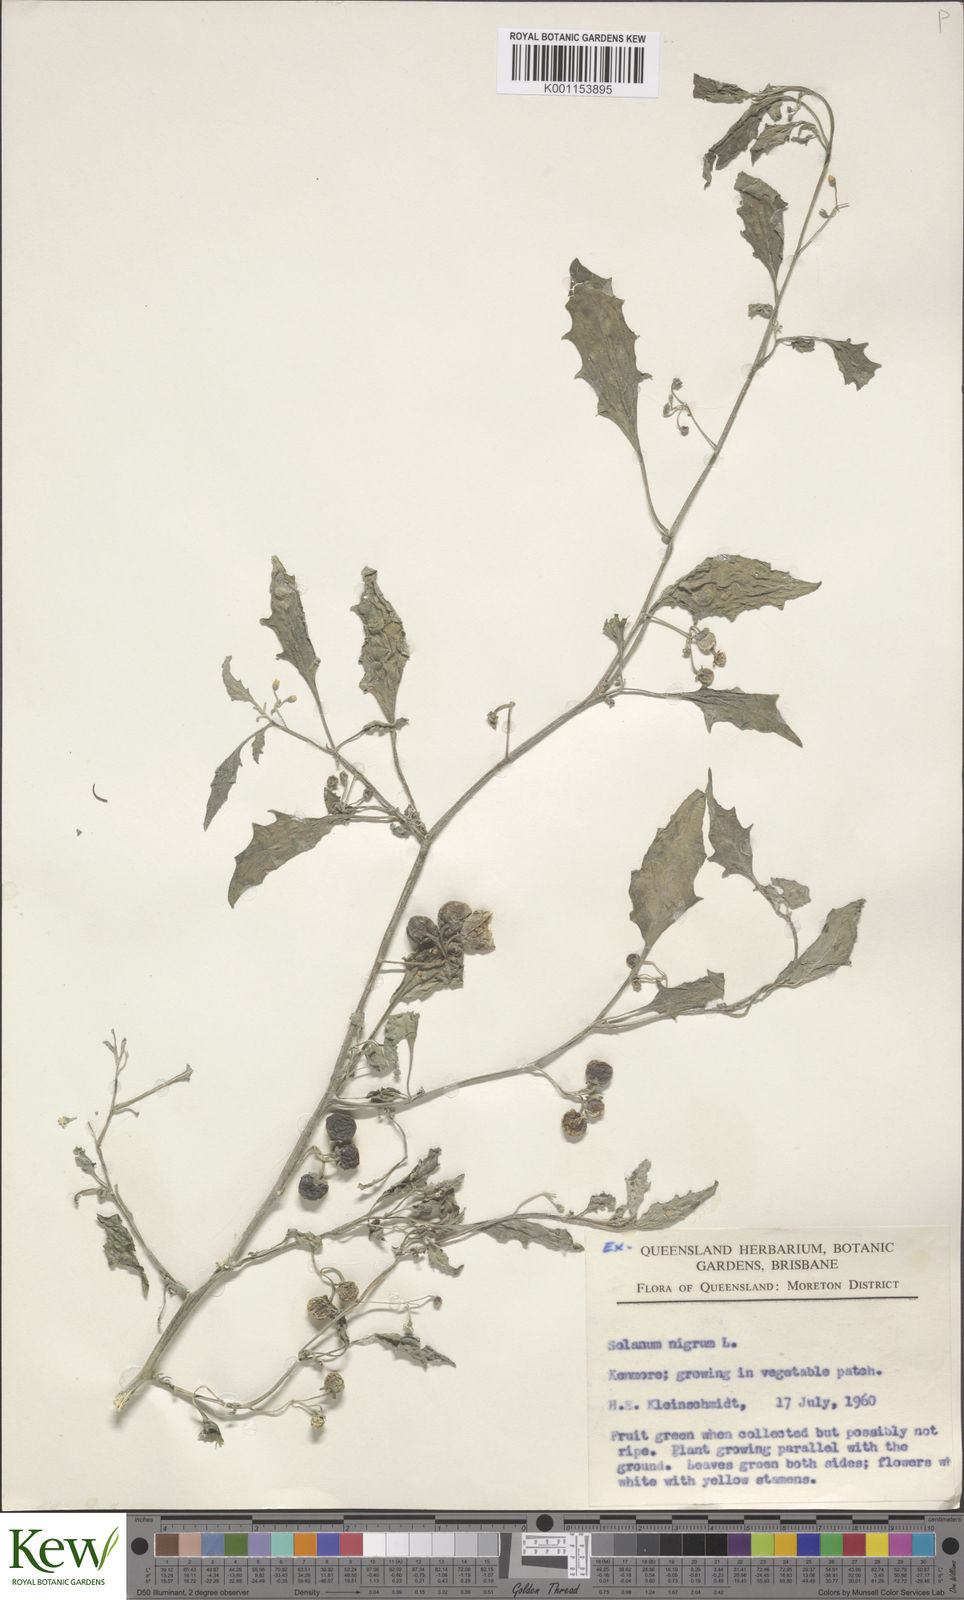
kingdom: Plantae
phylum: Tracheophyta
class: Magnoliopsida
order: Solanales
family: Solanaceae
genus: Solanum
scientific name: Solanum
